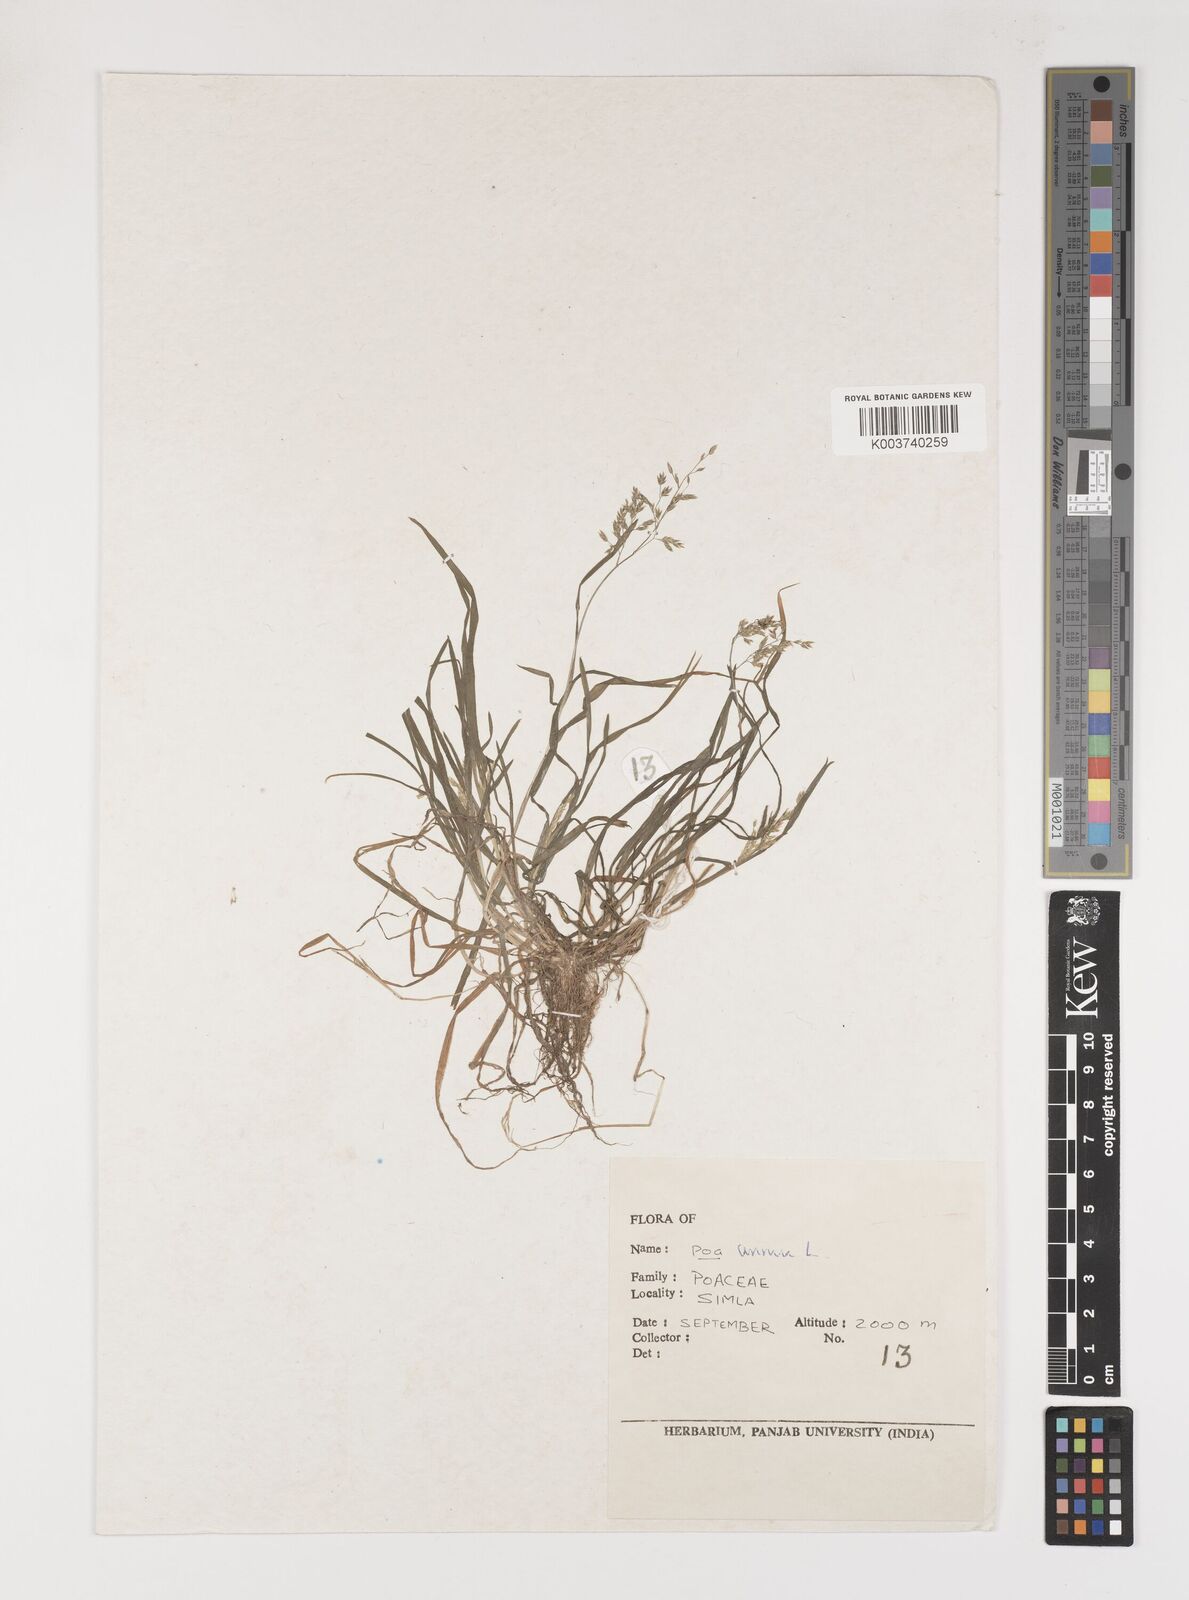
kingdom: Plantae
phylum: Tracheophyta
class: Liliopsida
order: Poales
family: Poaceae
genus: Poa
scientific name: Poa annua
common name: Annual bluegrass
